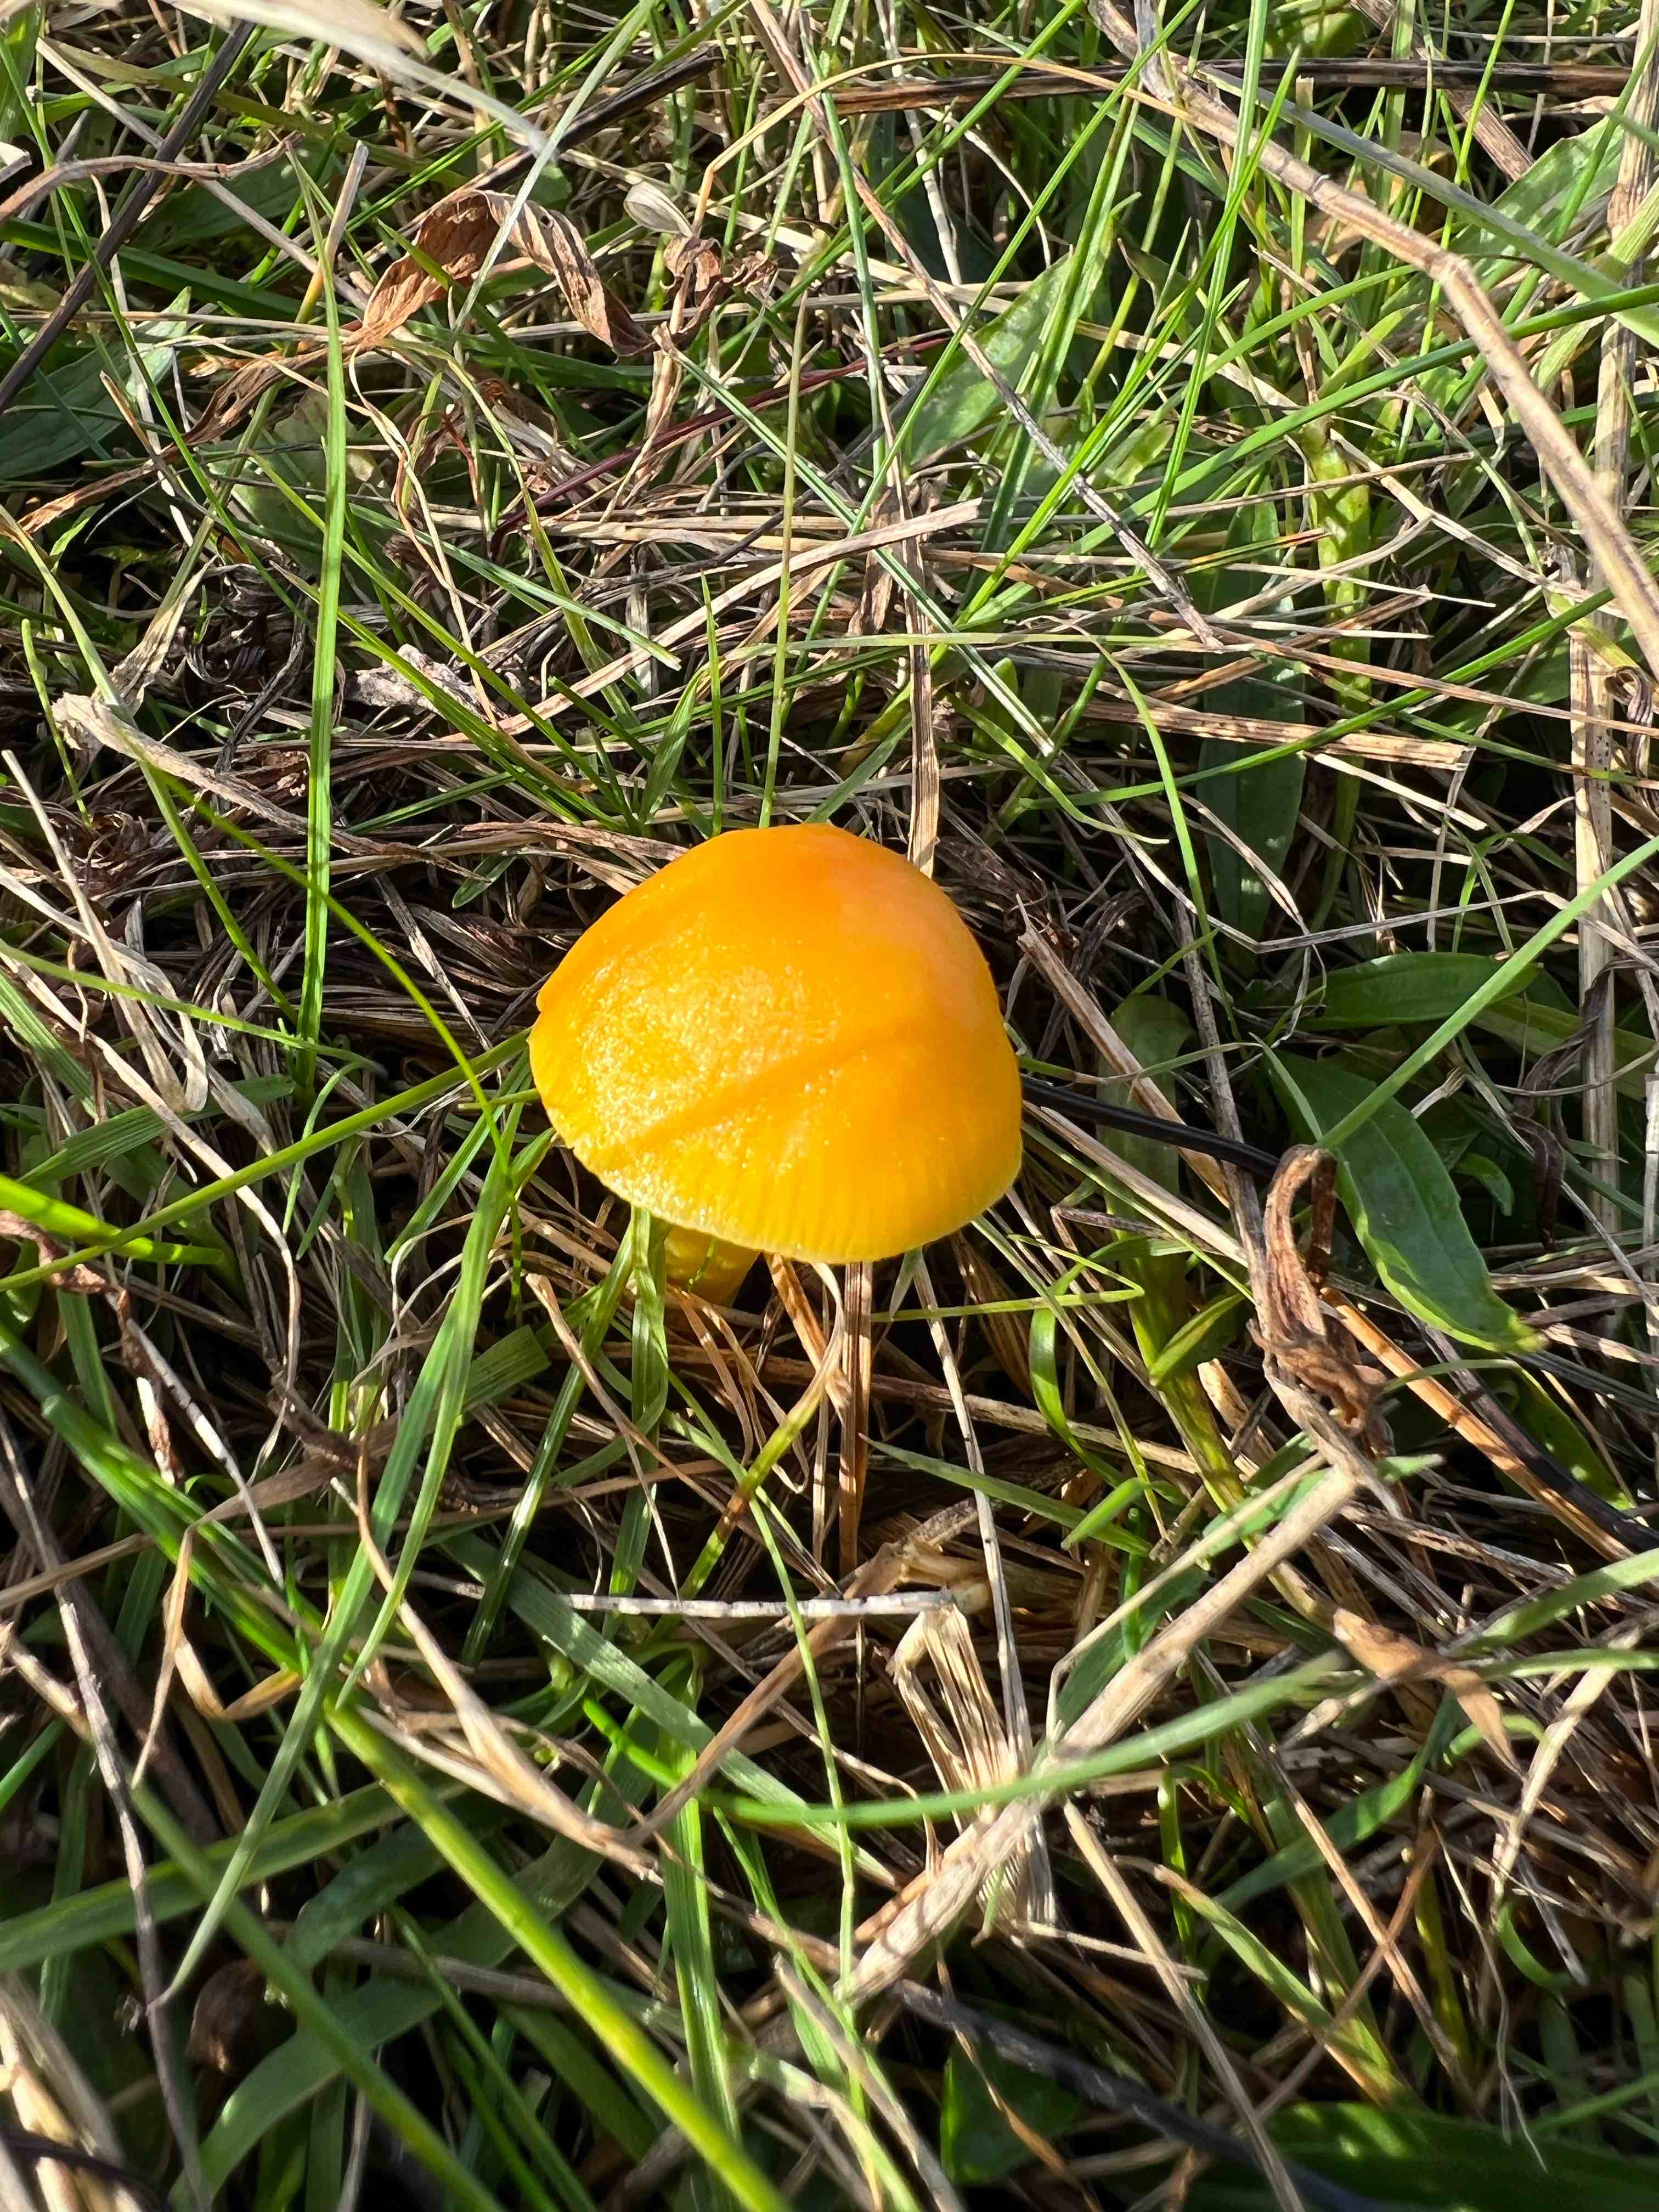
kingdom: Fungi
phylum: Basidiomycota
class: Agaricomycetes
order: Agaricales
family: Hygrophoraceae
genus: Hygrocybe
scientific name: Hygrocybe chlorophana
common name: gul vokshat
